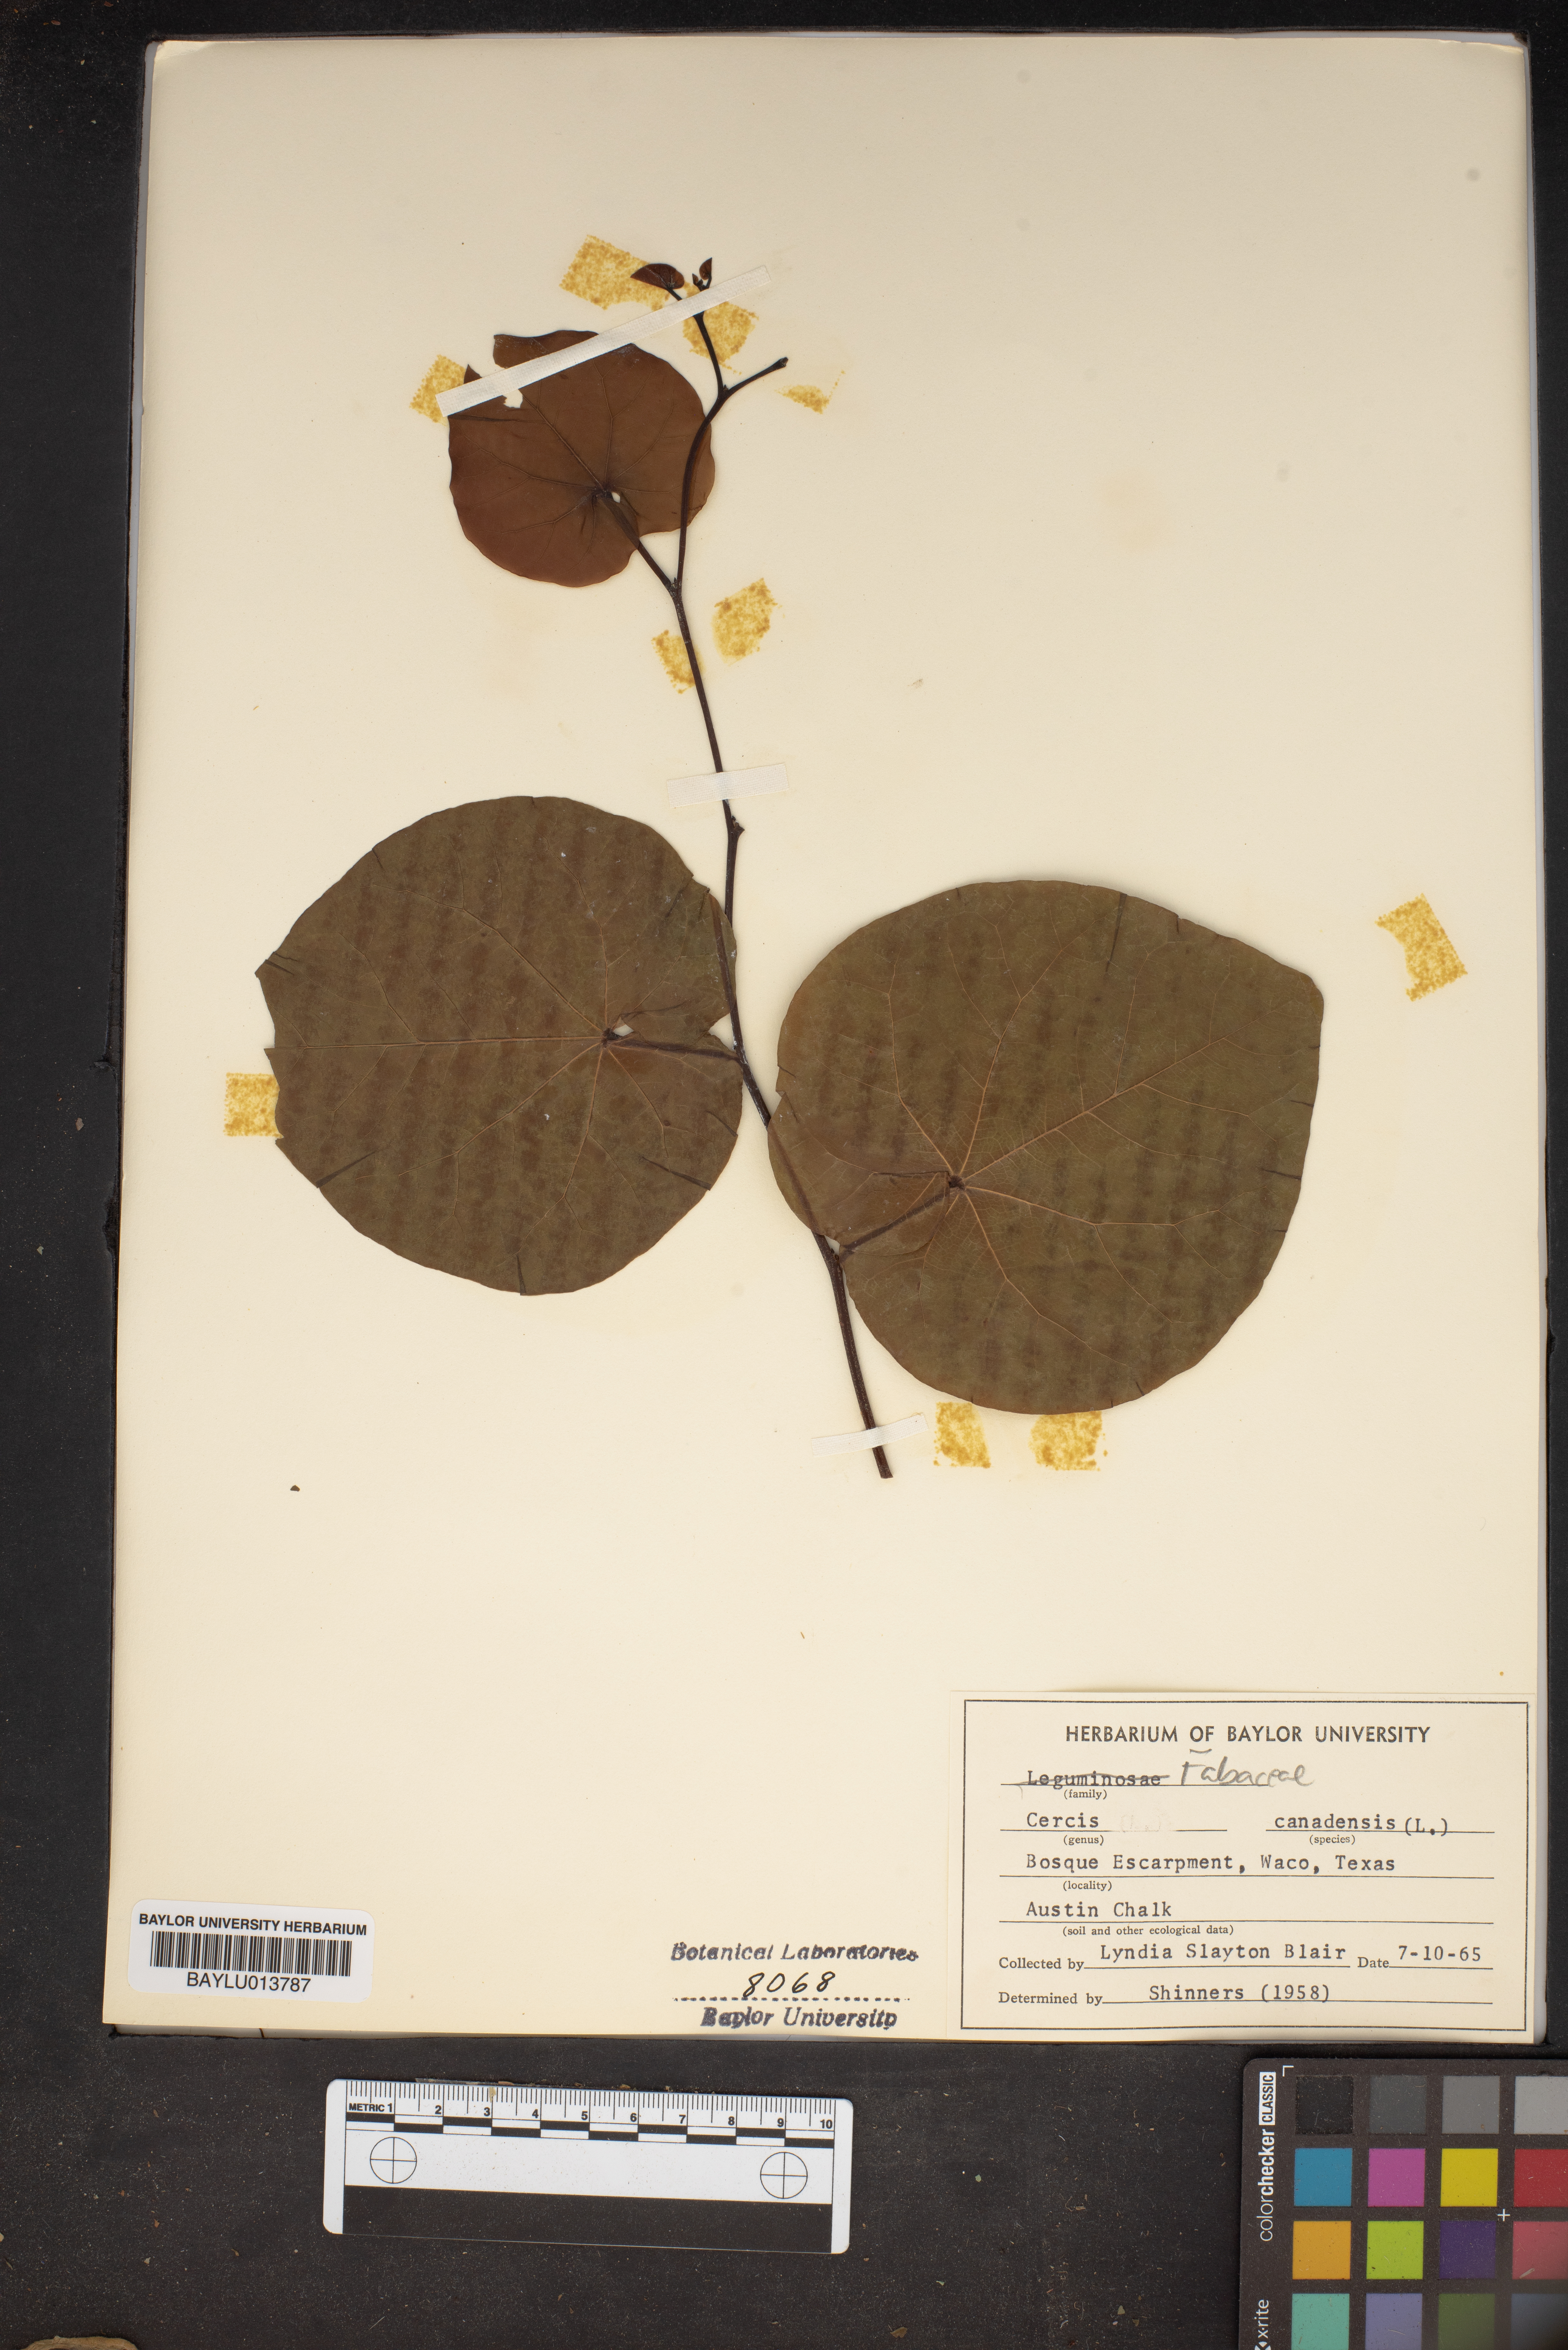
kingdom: Plantae
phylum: Tracheophyta
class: Magnoliopsida
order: Fabales
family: Fabaceae
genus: Cercis
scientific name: Cercis canadensis
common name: Eastern redbud
